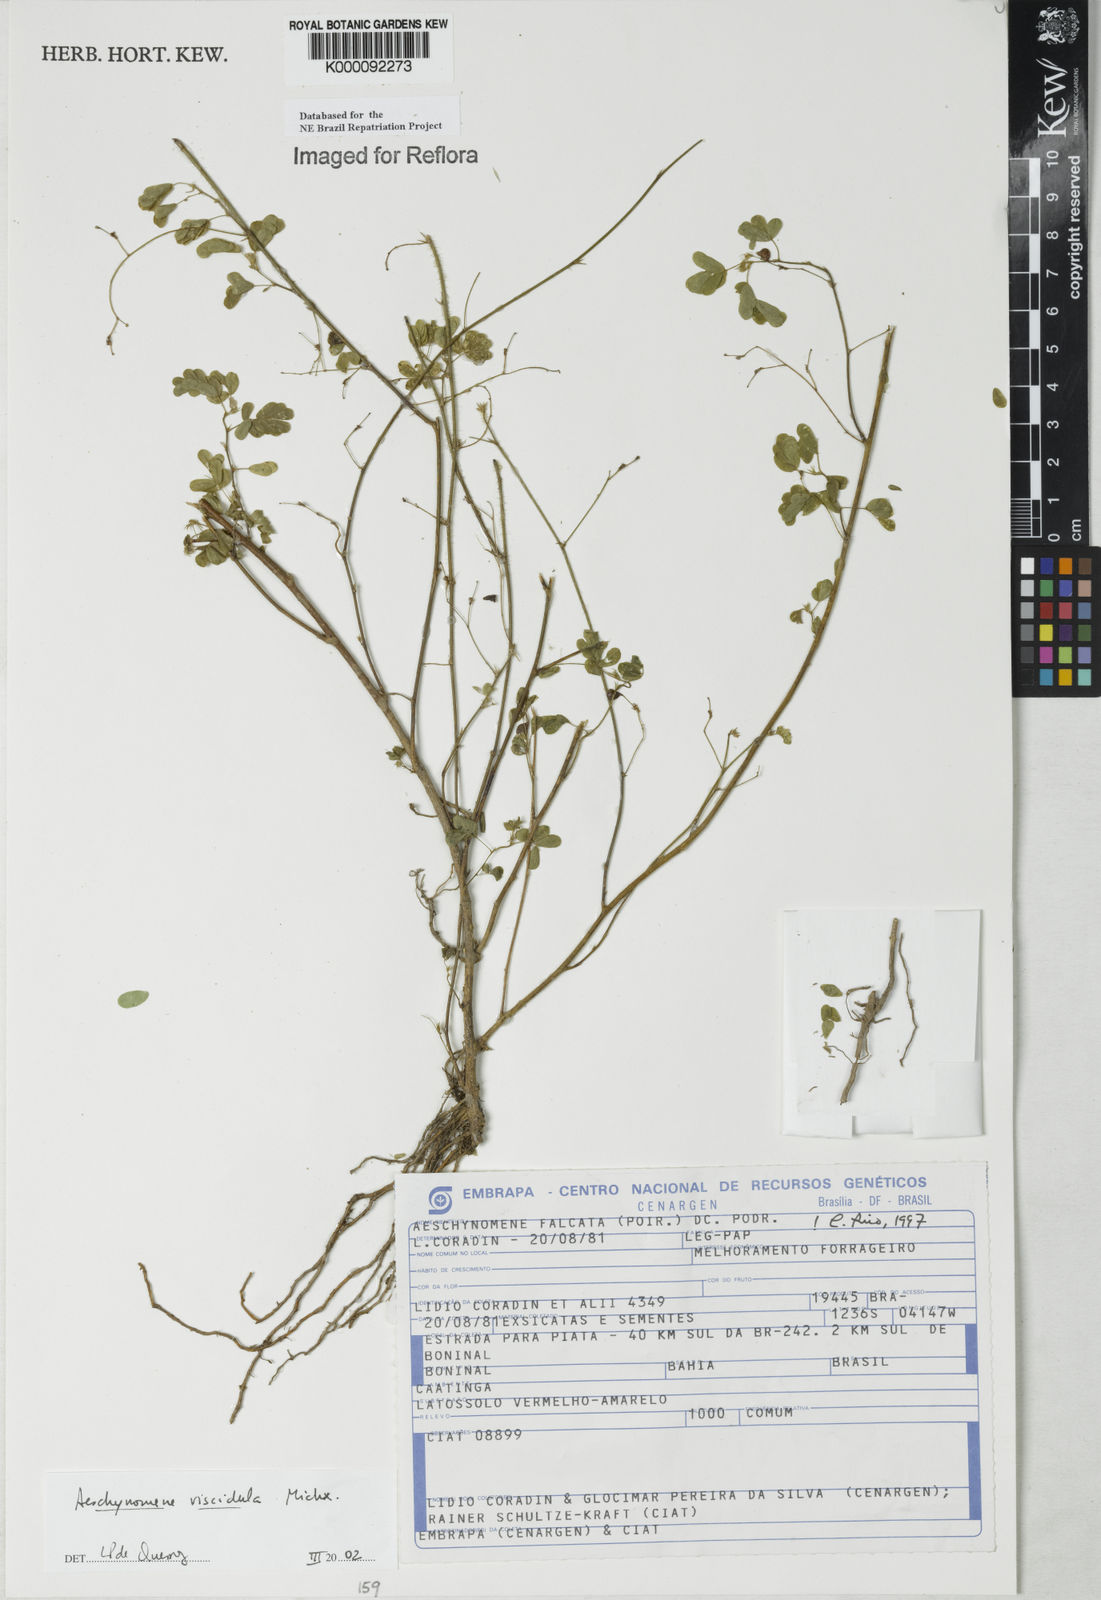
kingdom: Plantae
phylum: Tracheophyta
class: Magnoliopsida
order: Fabales
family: Fabaceae
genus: Ctenodon
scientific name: Ctenodon viscidulus
